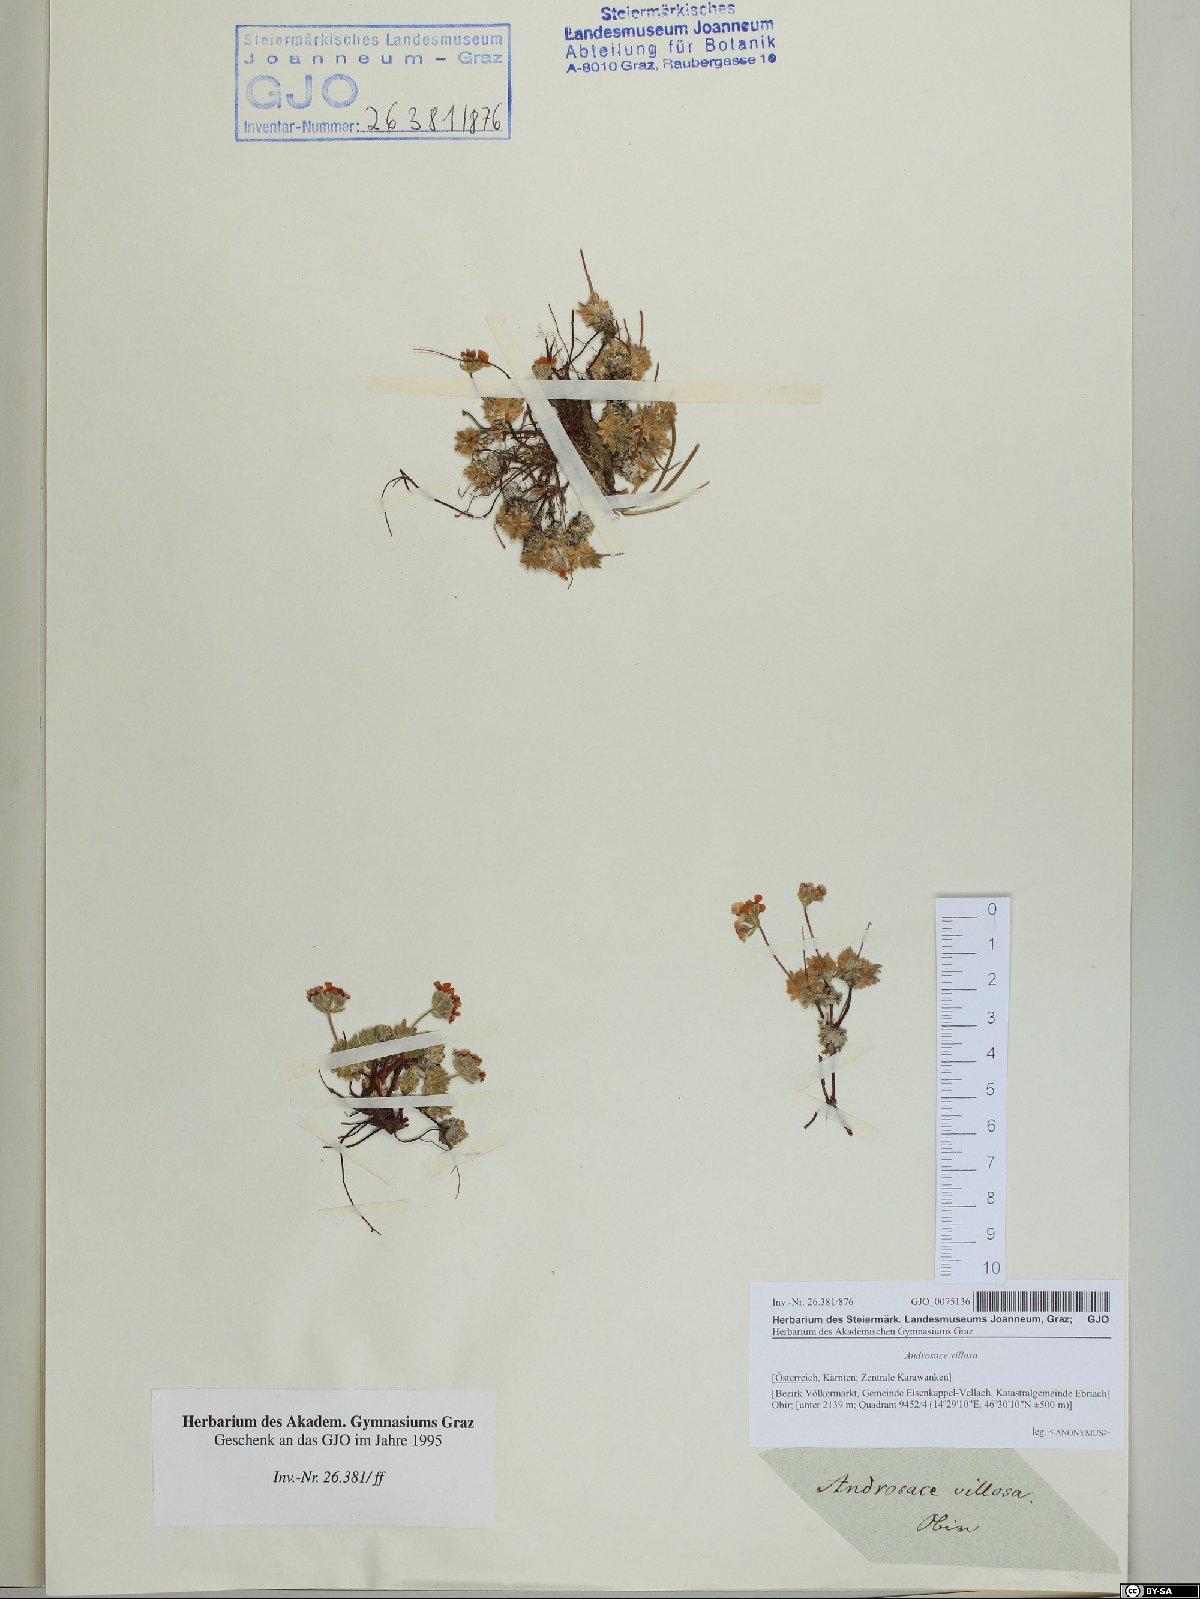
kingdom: Plantae
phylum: Tracheophyta
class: Magnoliopsida
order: Ericales
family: Primulaceae
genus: Androsace
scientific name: Androsace villosa
